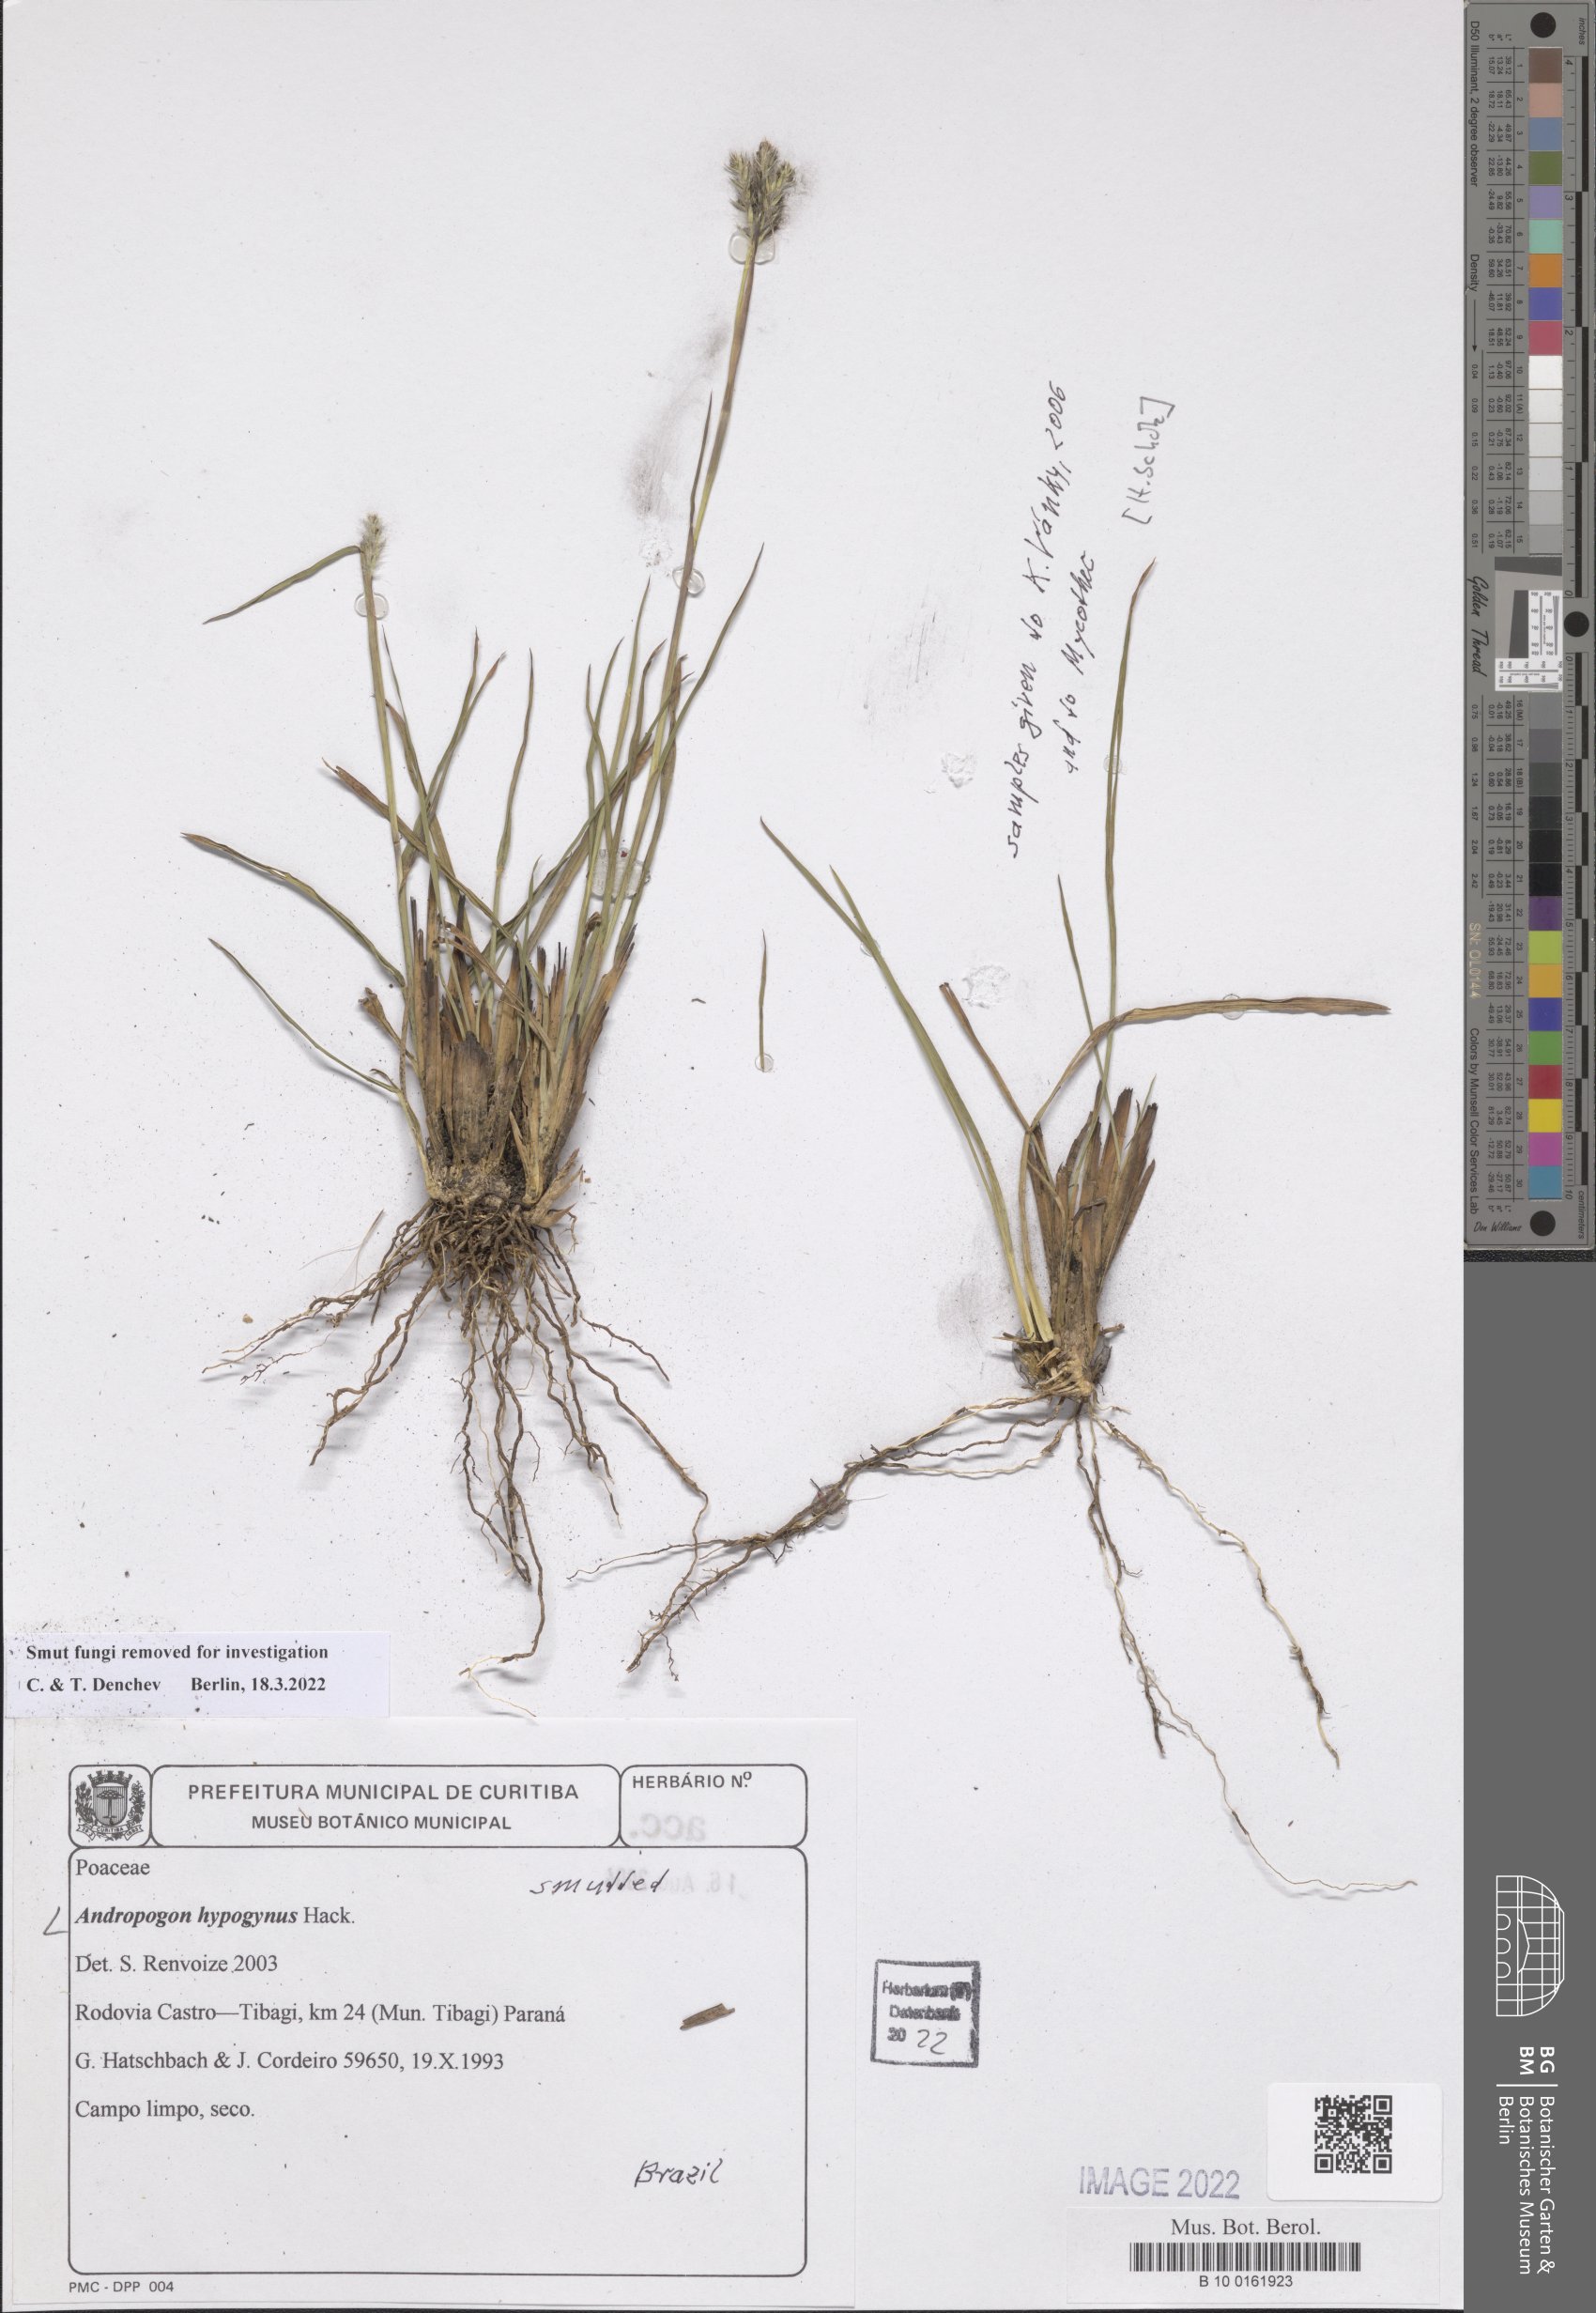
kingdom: Plantae
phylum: Tracheophyta
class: Liliopsida
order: Poales
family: Poaceae
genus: Andropogon
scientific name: Andropogon hypogynus
